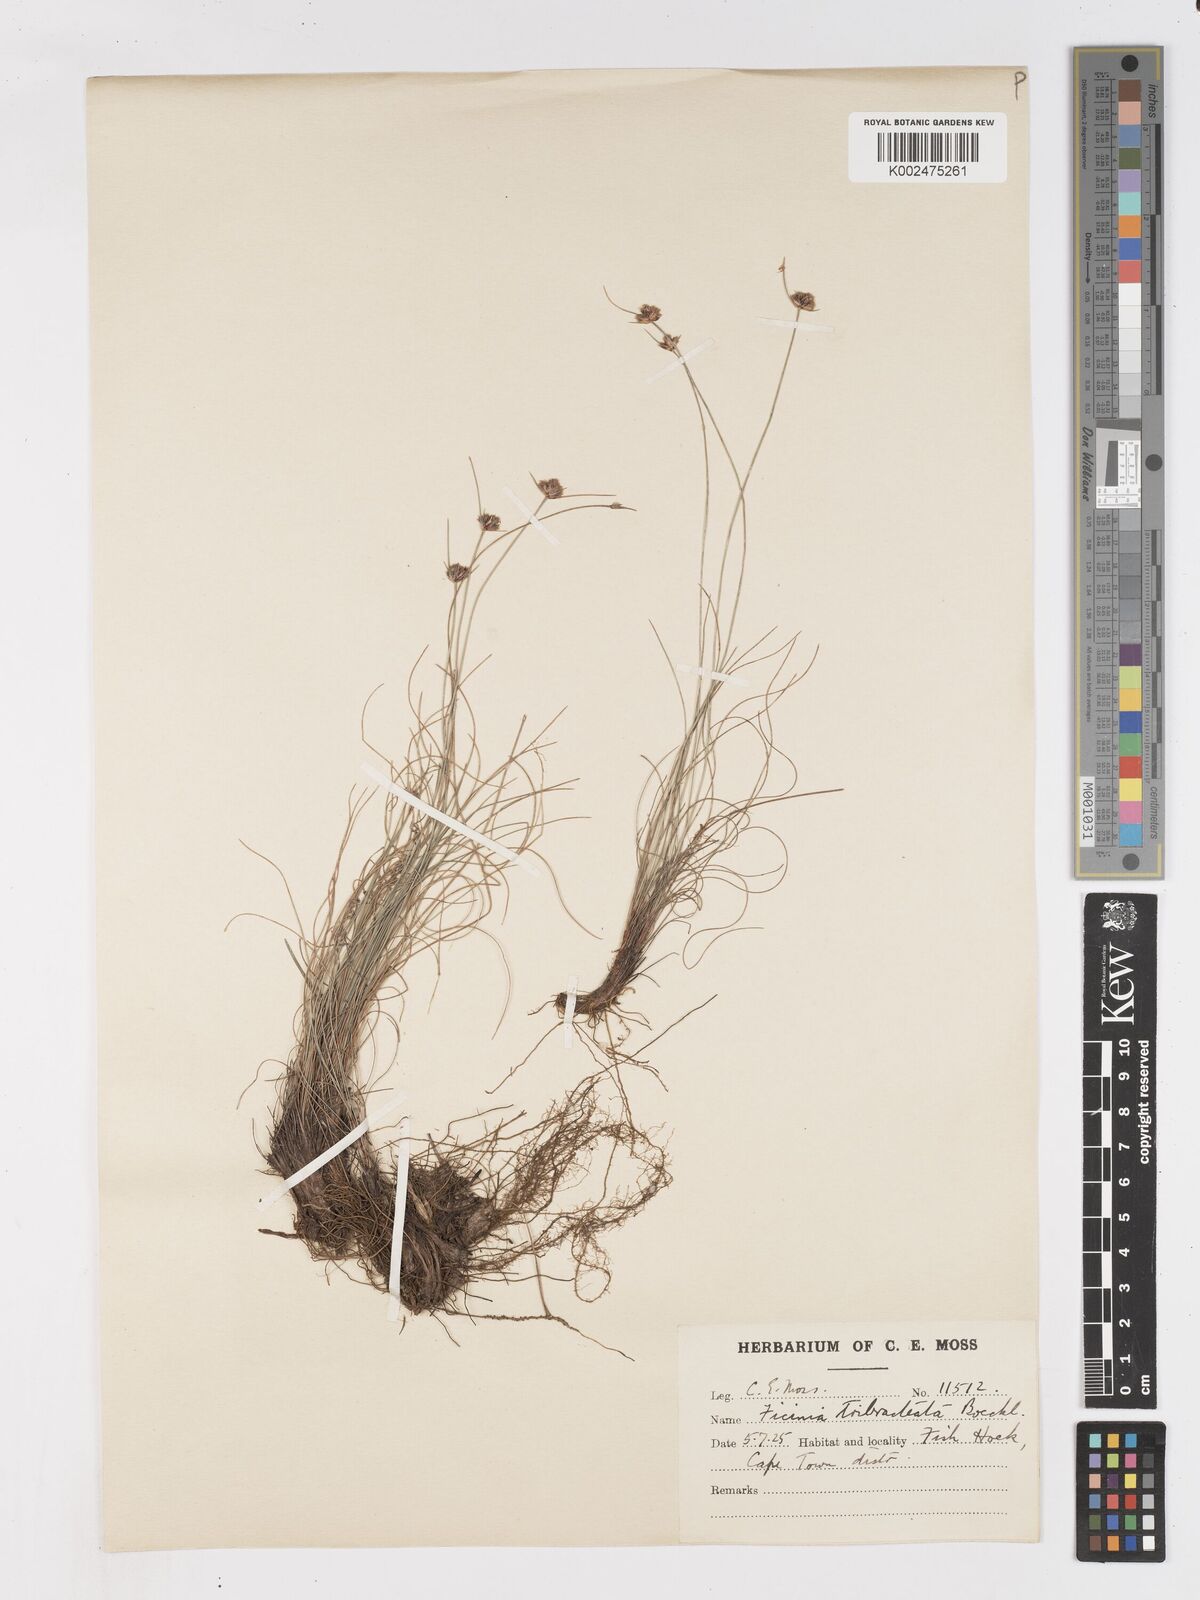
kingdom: Plantae
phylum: Tracheophyta
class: Liliopsida
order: Poales
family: Cyperaceae
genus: Ficinia
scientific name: Ficinia tristachya
